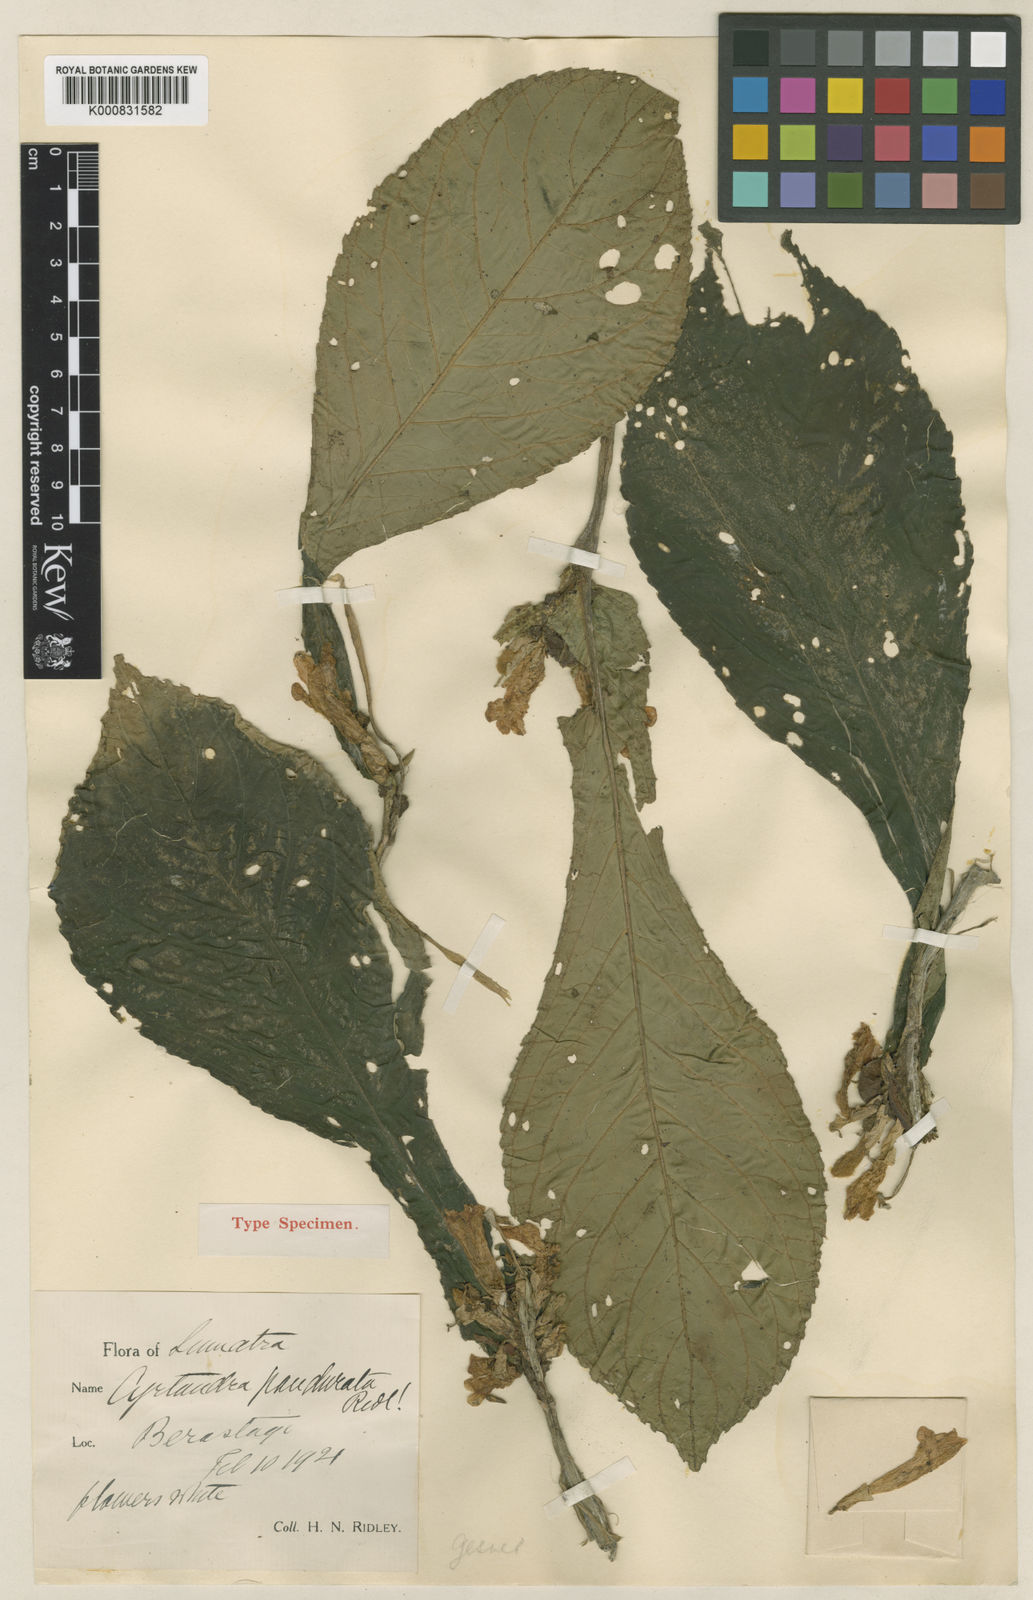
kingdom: Plantae
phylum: Tracheophyta
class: Magnoliopsida
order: Lamiales
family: Gesneriaceae
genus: Cyrtandra
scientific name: Cyrtandra pandurata
